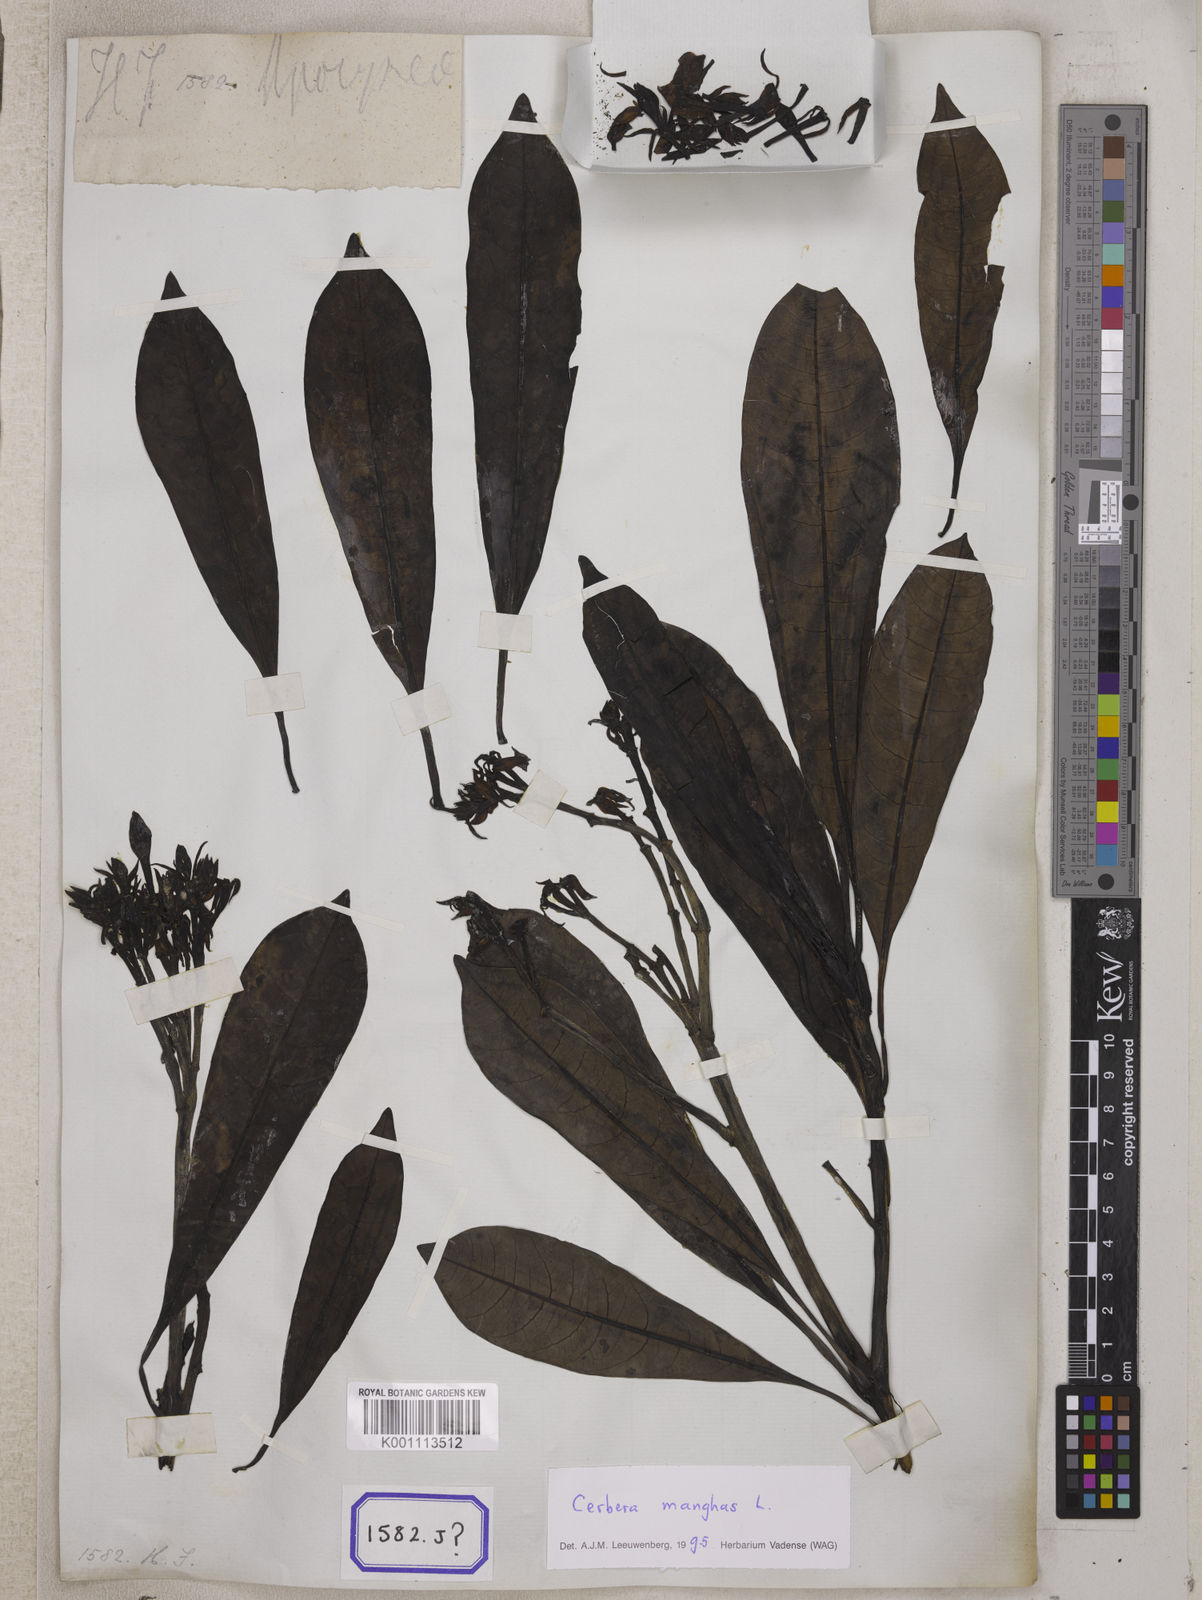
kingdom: Plantae
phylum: Tracheophyta
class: Magnoliopsida
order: Gentianales
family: Apocynaceae
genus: Cerbera
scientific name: Cerbera manghas
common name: Reva
